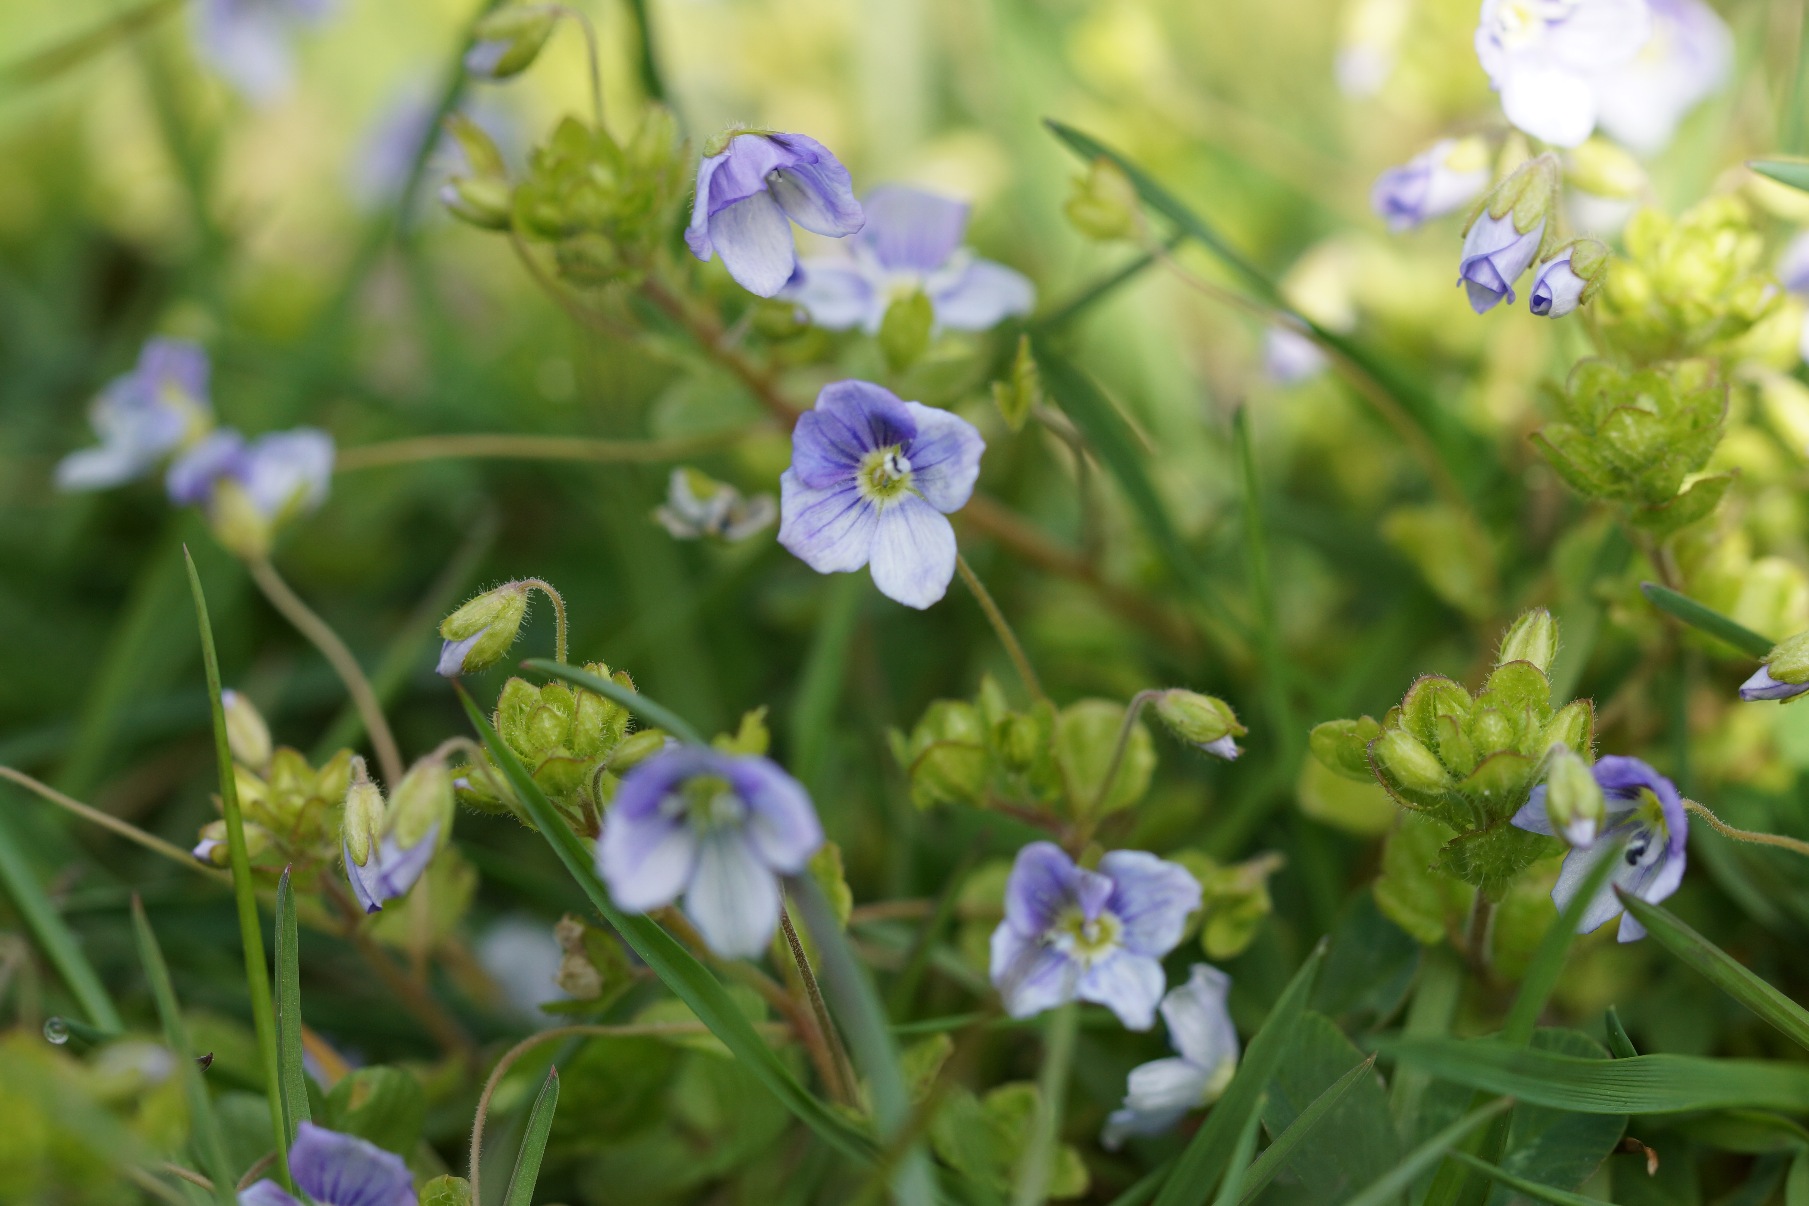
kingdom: Plantae
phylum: Tracheophyta
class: Magnoliopsida
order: Lamiales
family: Plantaginaceae
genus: Veronica
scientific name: Veronica filiformis
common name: Tråd-ærenpris
